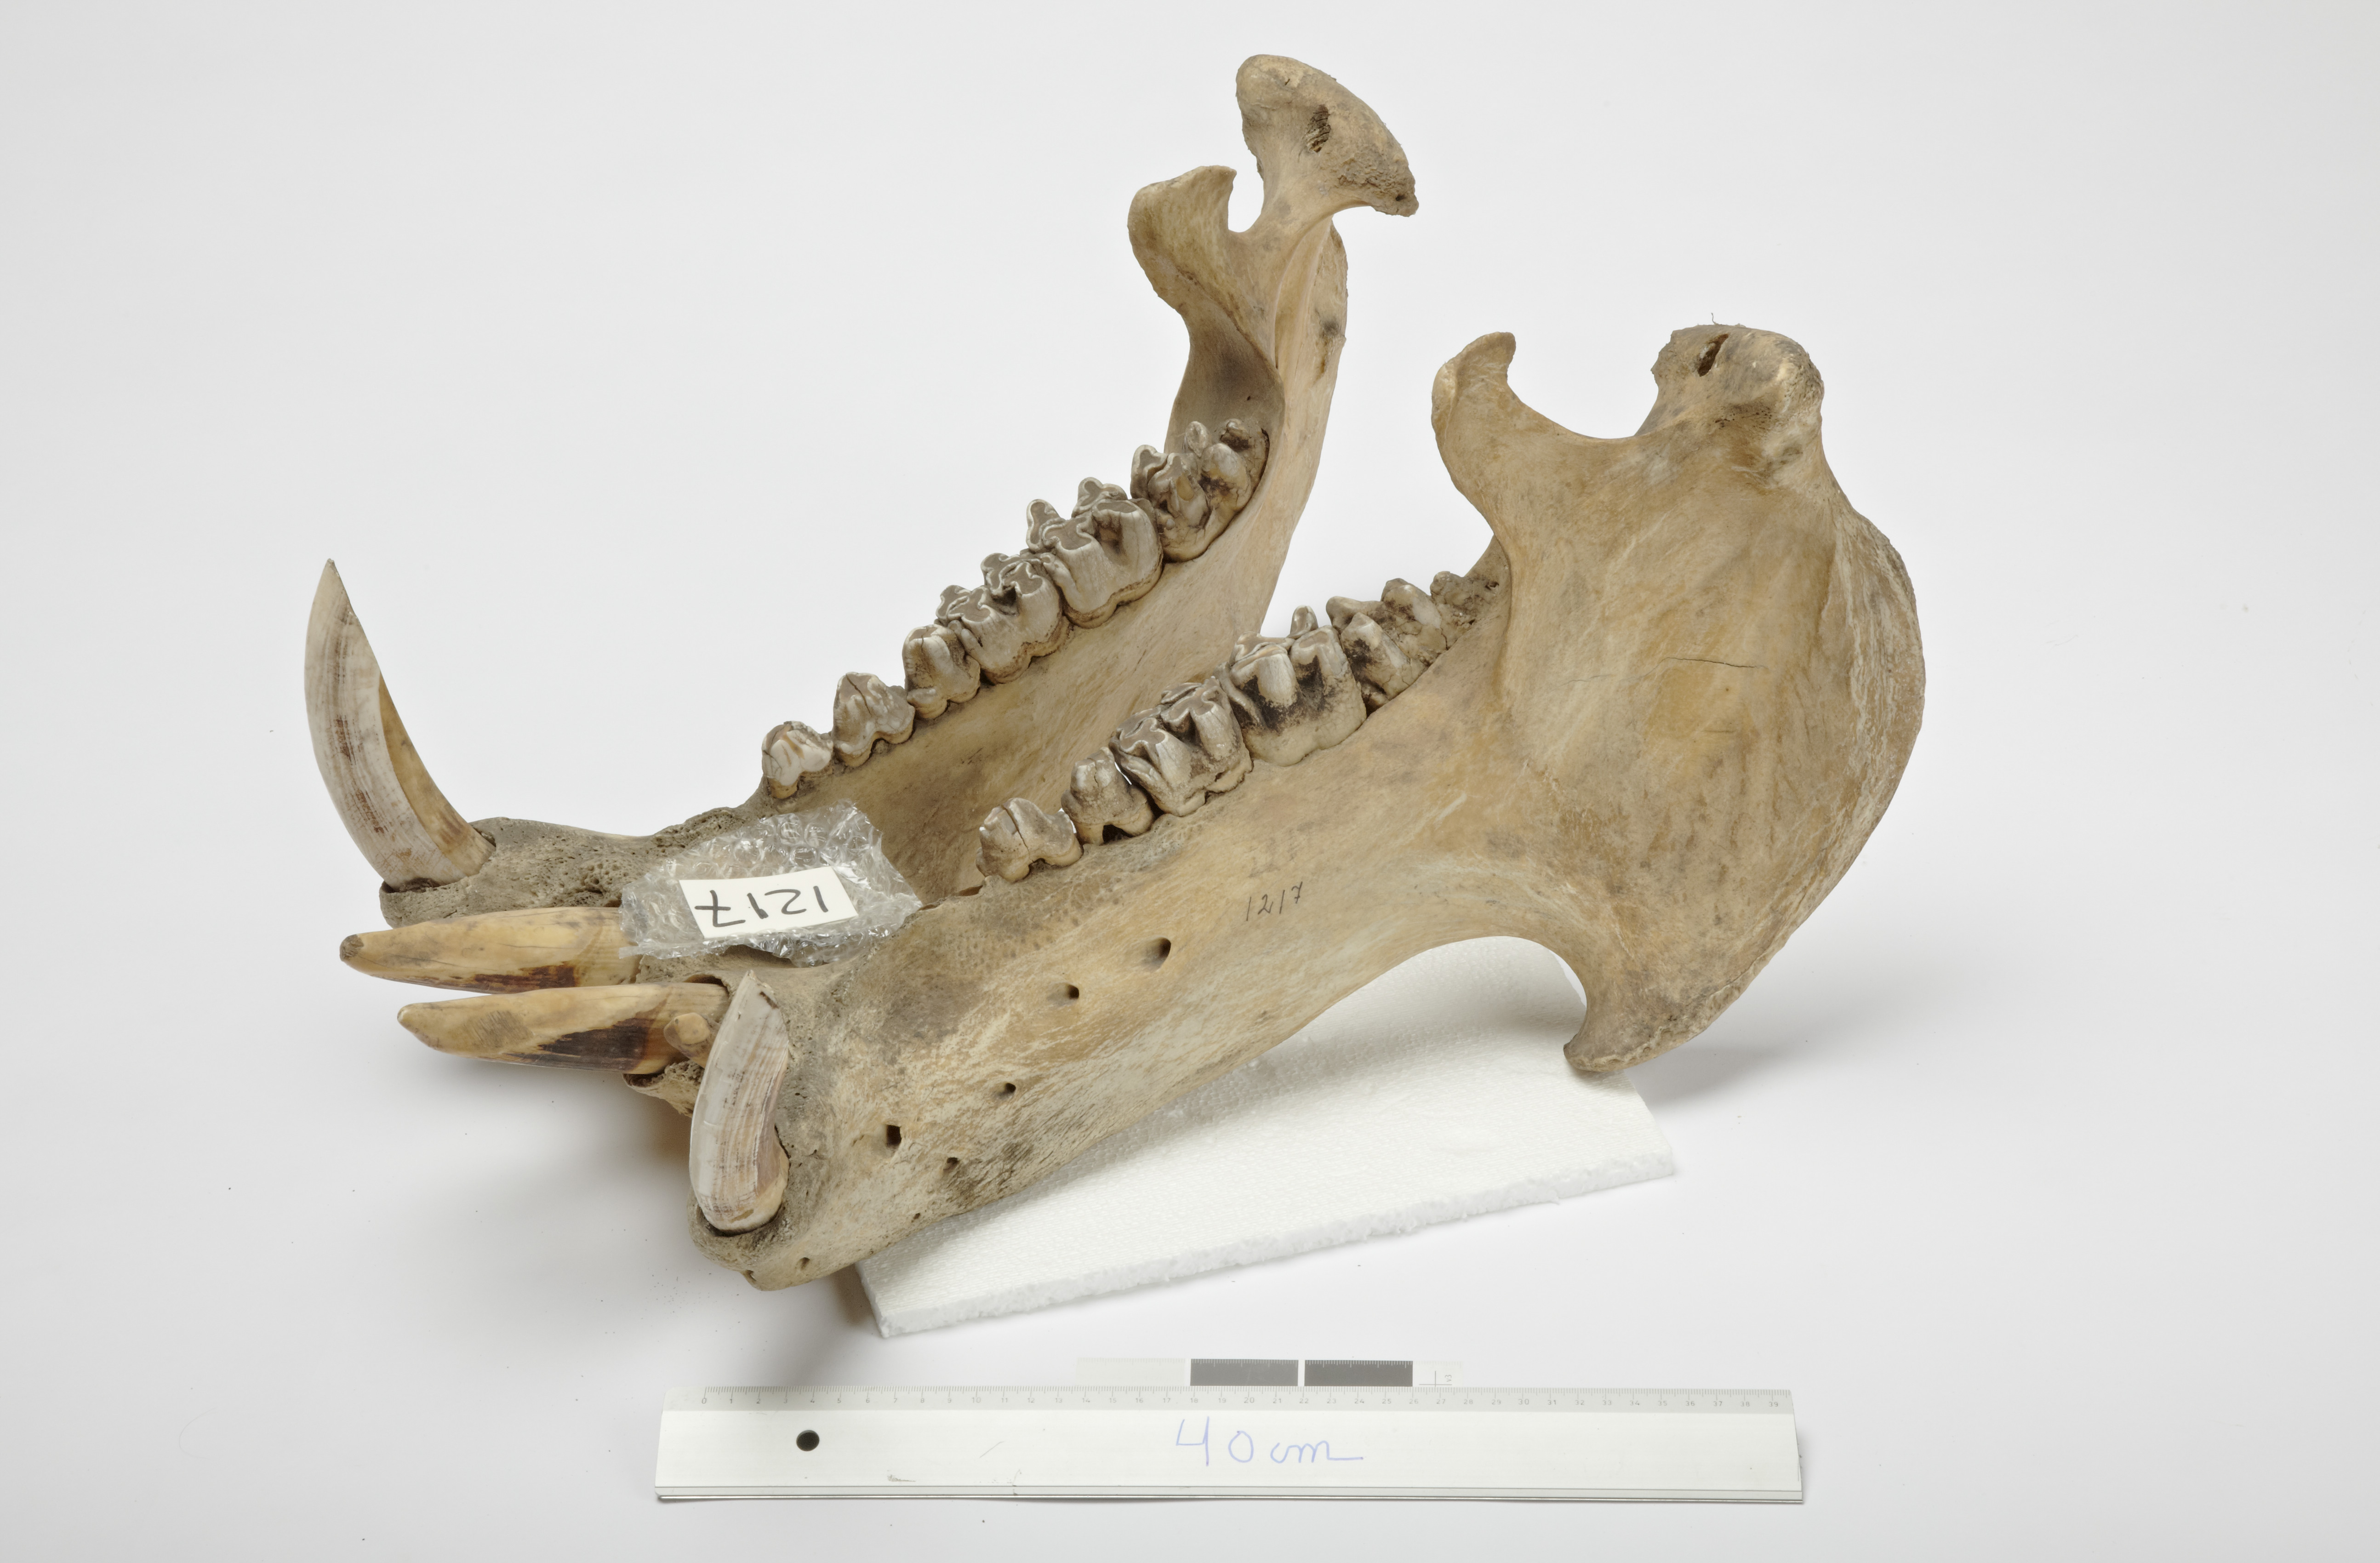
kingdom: Animalia
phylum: Chordata
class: Mammalia
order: Artiodactyla
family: Hippopotamidae
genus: Hippopotamus
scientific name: Hippopotamus amphibius
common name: Common hippopotamus
